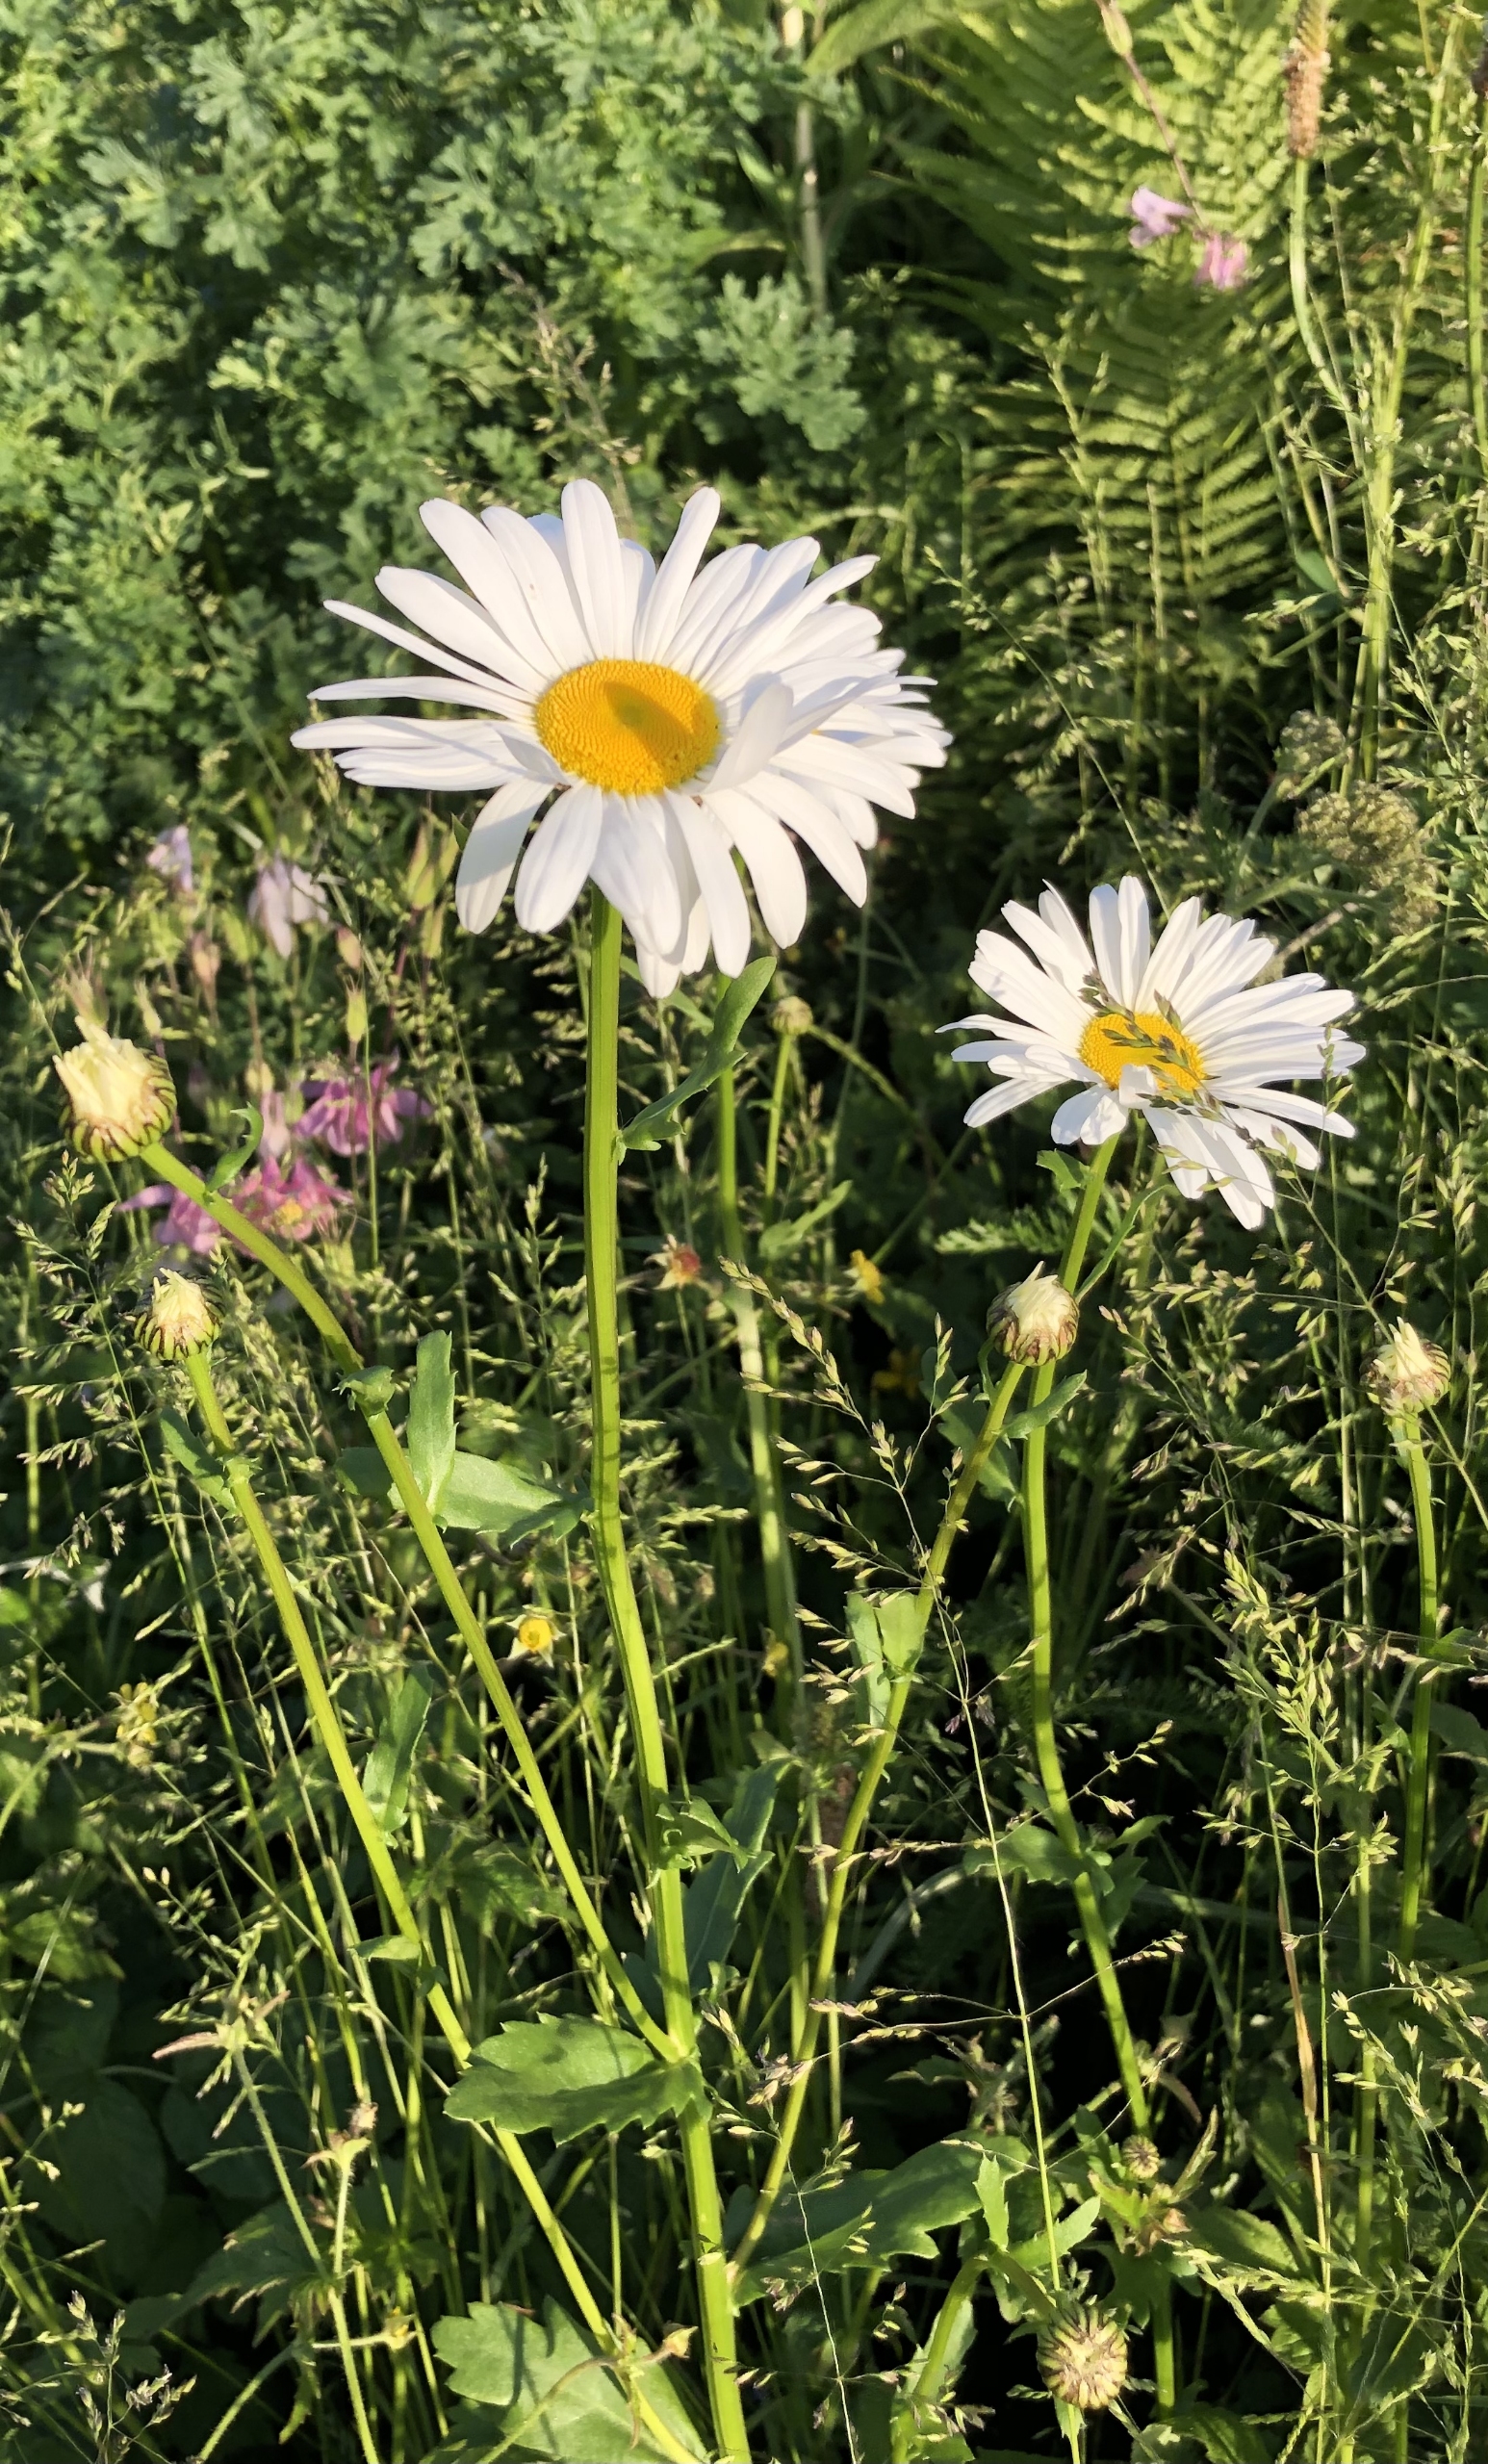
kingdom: Plantae
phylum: Tracheophyta
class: Magnoliopsida
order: Asterales
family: Asteraceae
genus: Leucanthemum
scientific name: Leucanthemum vulgare
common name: Hvid okseøje
